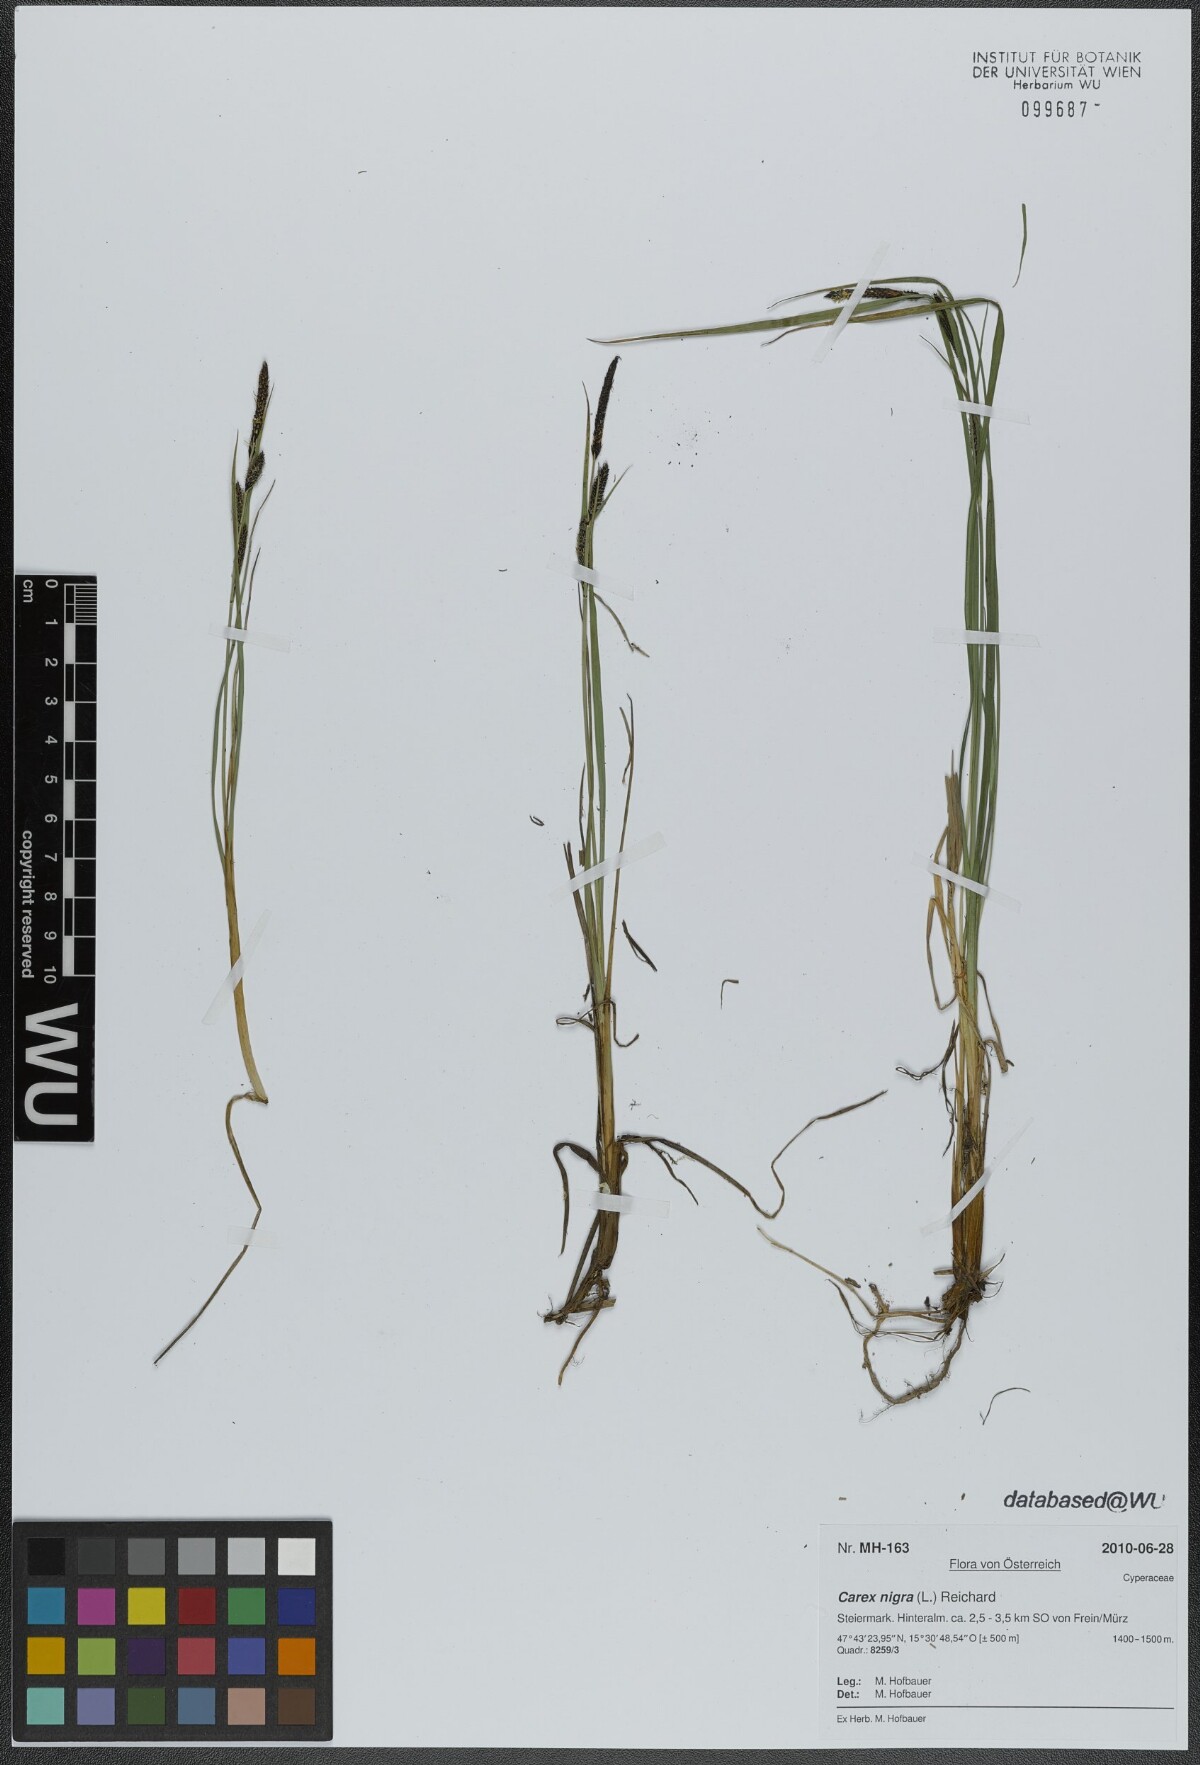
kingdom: Plantae
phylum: Tracheophyta
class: Liliopsida
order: Poales
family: Cyperaceae
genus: Carex
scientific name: Carex nigra
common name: Common sedge
